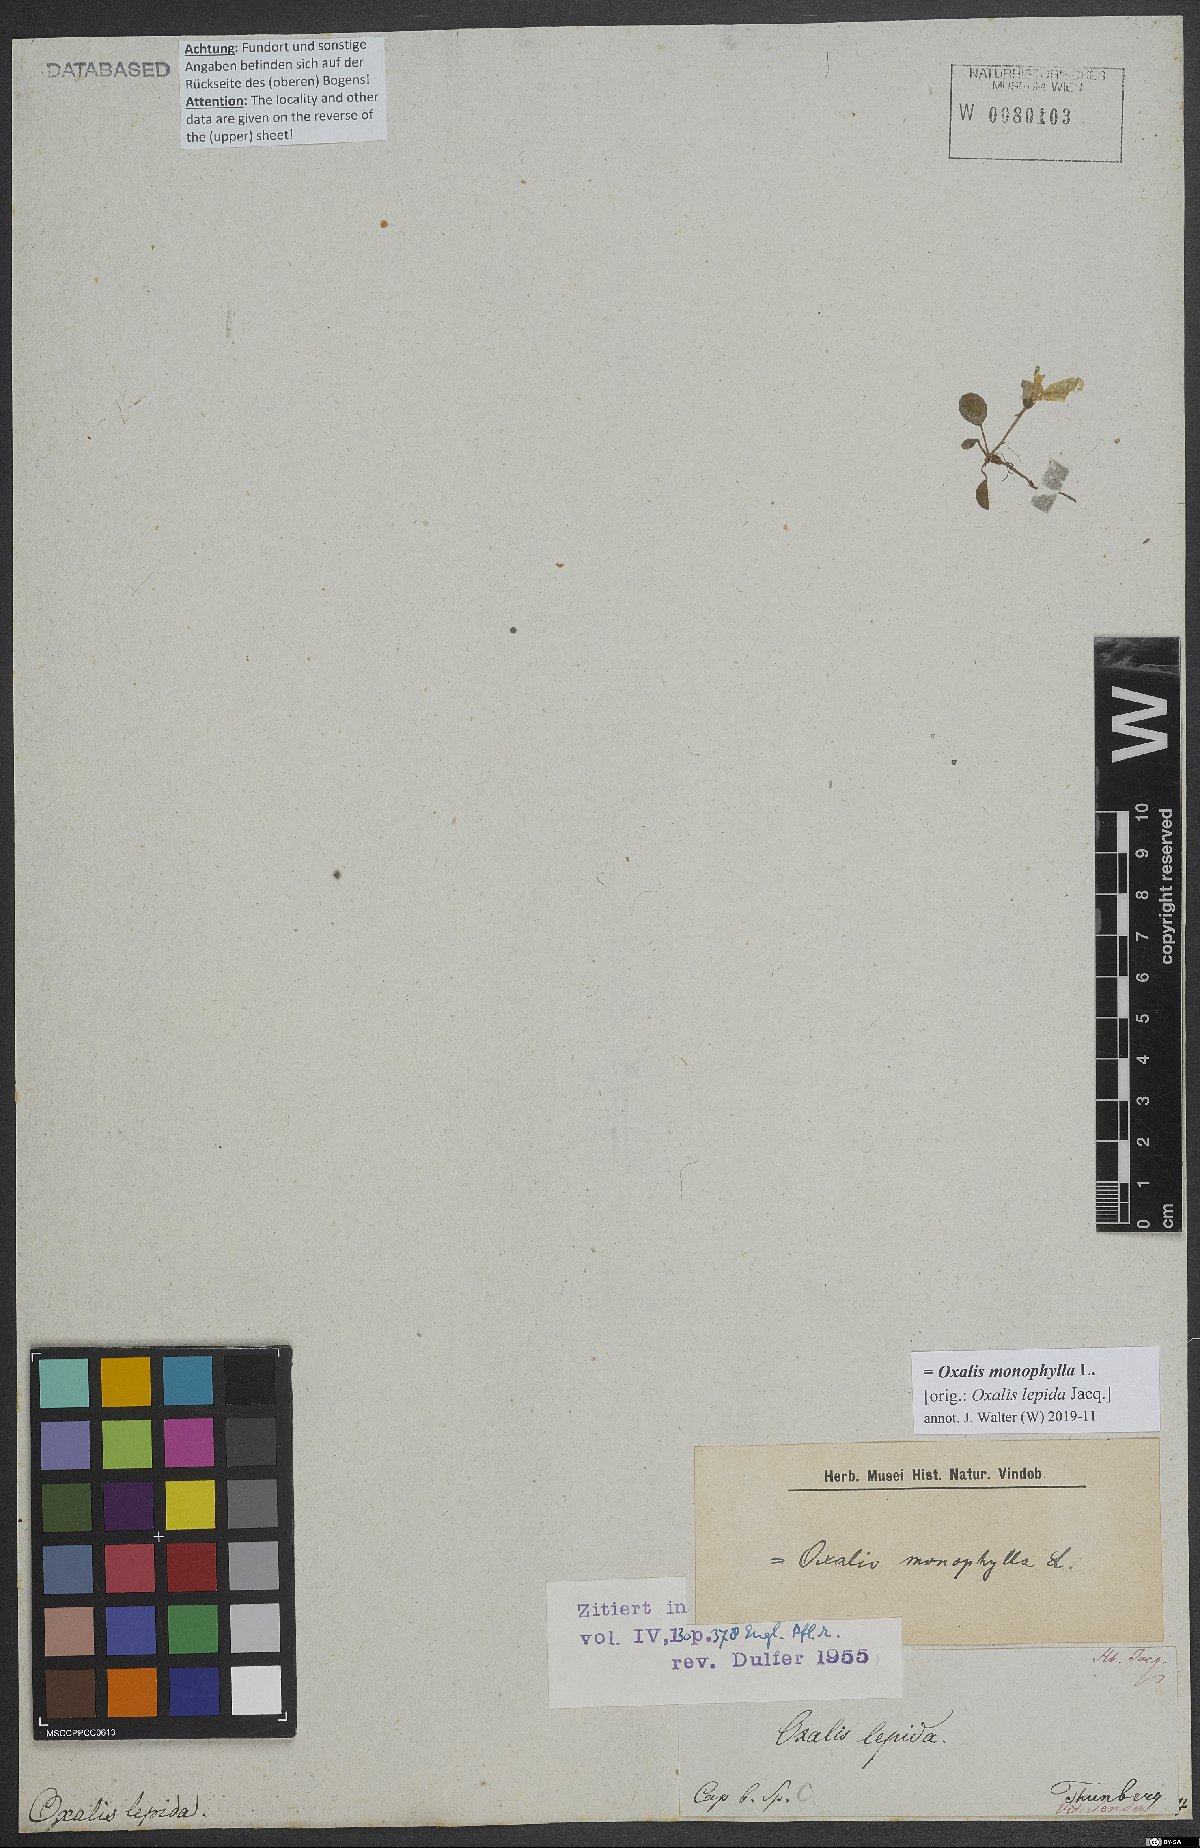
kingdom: Plantae
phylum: Tracheophyta
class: Magnoliopsida
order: Oxalidales
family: Oxalidaceae
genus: Oxalis
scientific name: Oxalis monophylla
